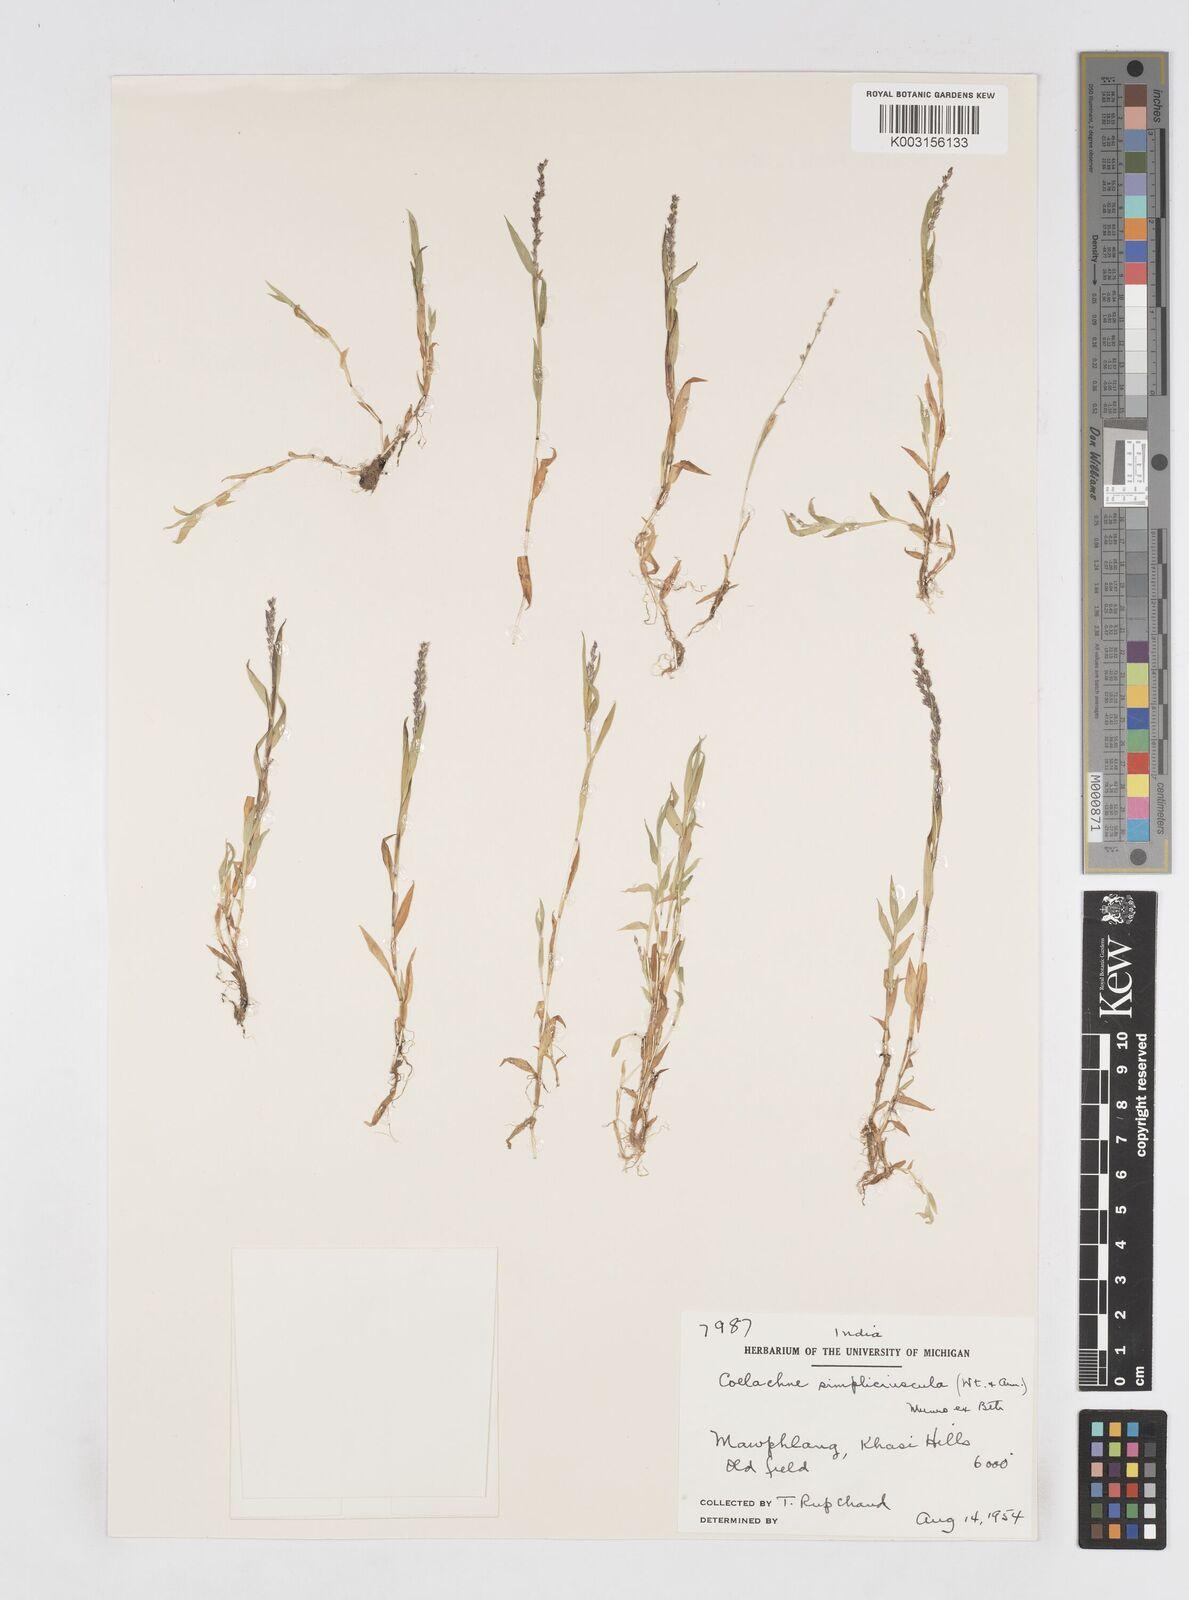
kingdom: Plantae
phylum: Tracheophyta
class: Liliopsida
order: Poales
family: Poaceae
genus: Coelachne
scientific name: Coelachne simpliciuscula
